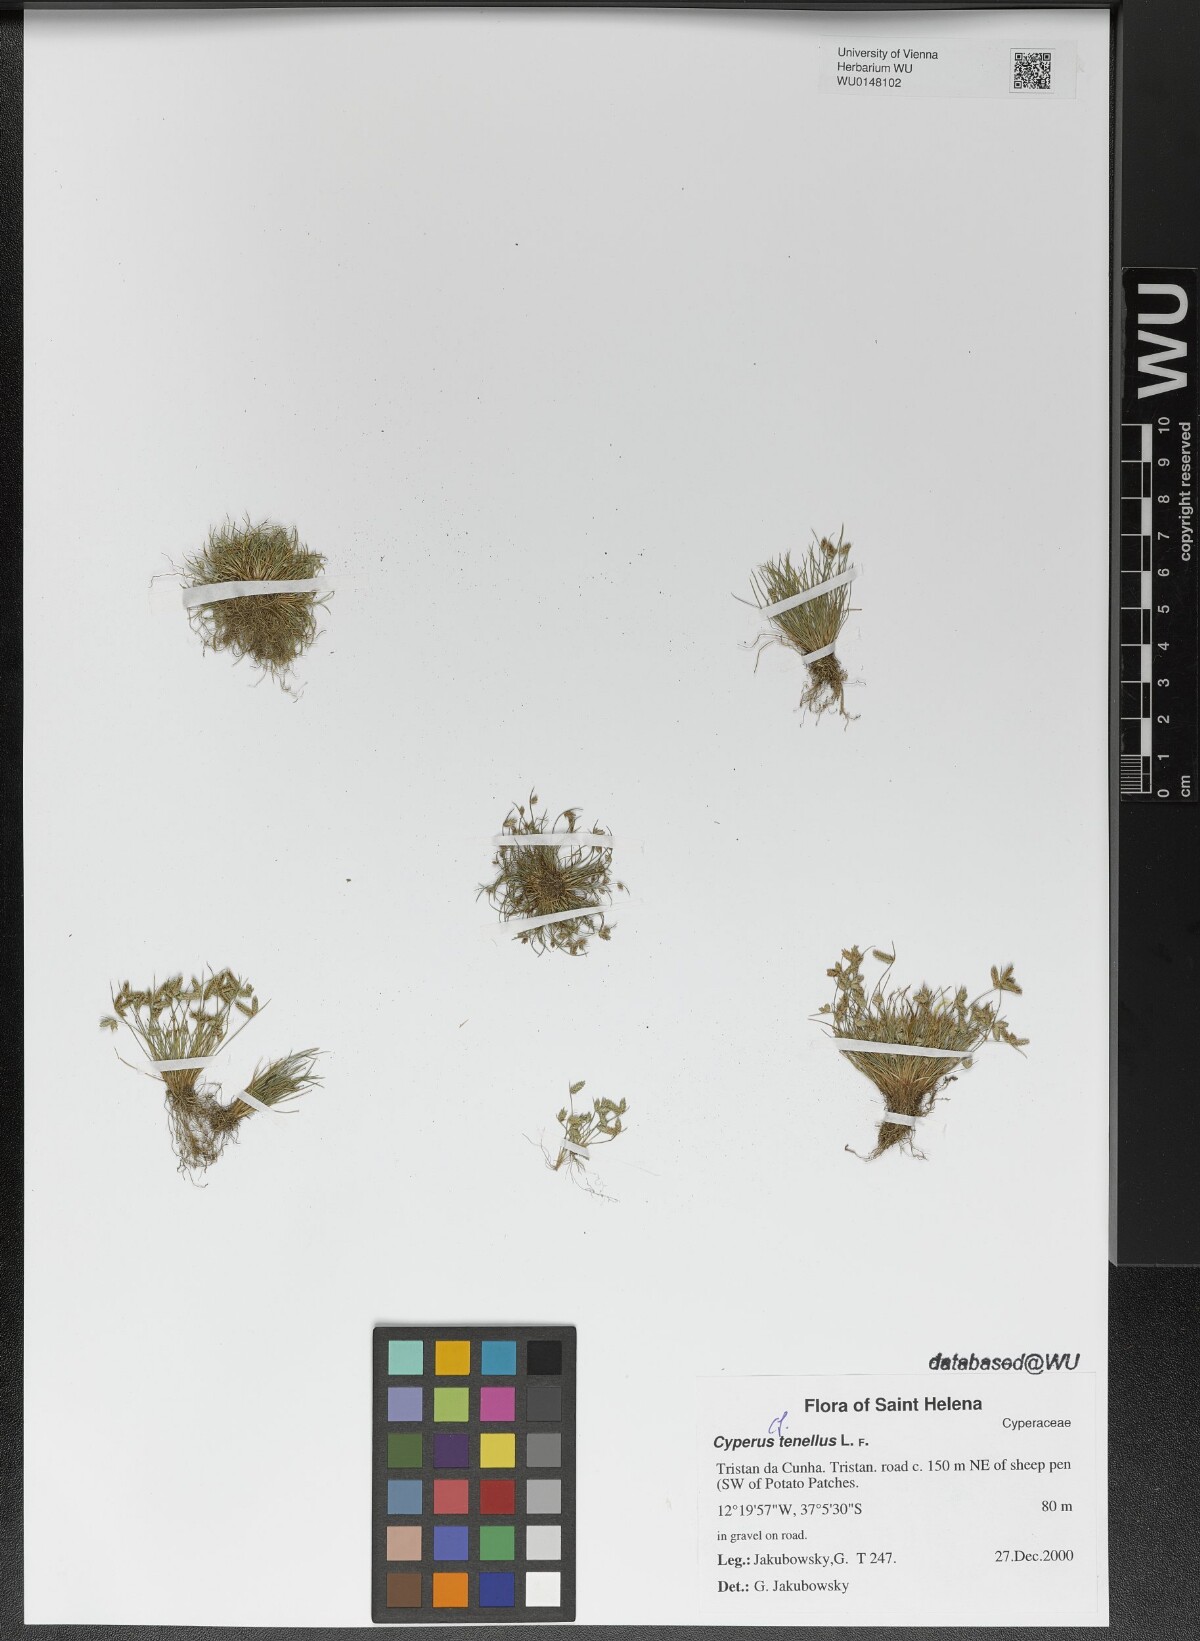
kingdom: Plantae
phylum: Tracheophyta
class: Liliopsida
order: Poales
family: Cyperaceae
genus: Isolepis
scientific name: Isolepis levynsiana
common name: Sedge
